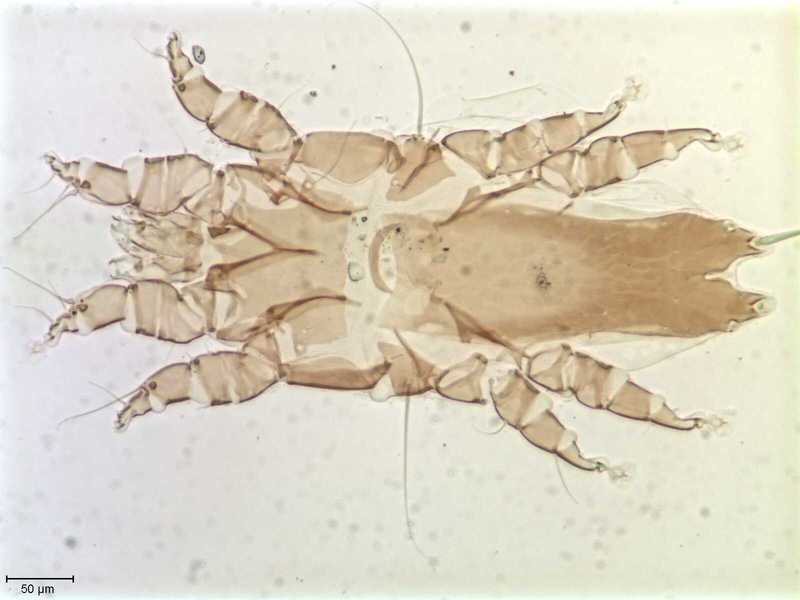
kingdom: Animalia
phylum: Arthropoda
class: Arachnida
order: Sarcoptiformes
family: Alloptidae
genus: Brephosceles
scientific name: Brephosceles
